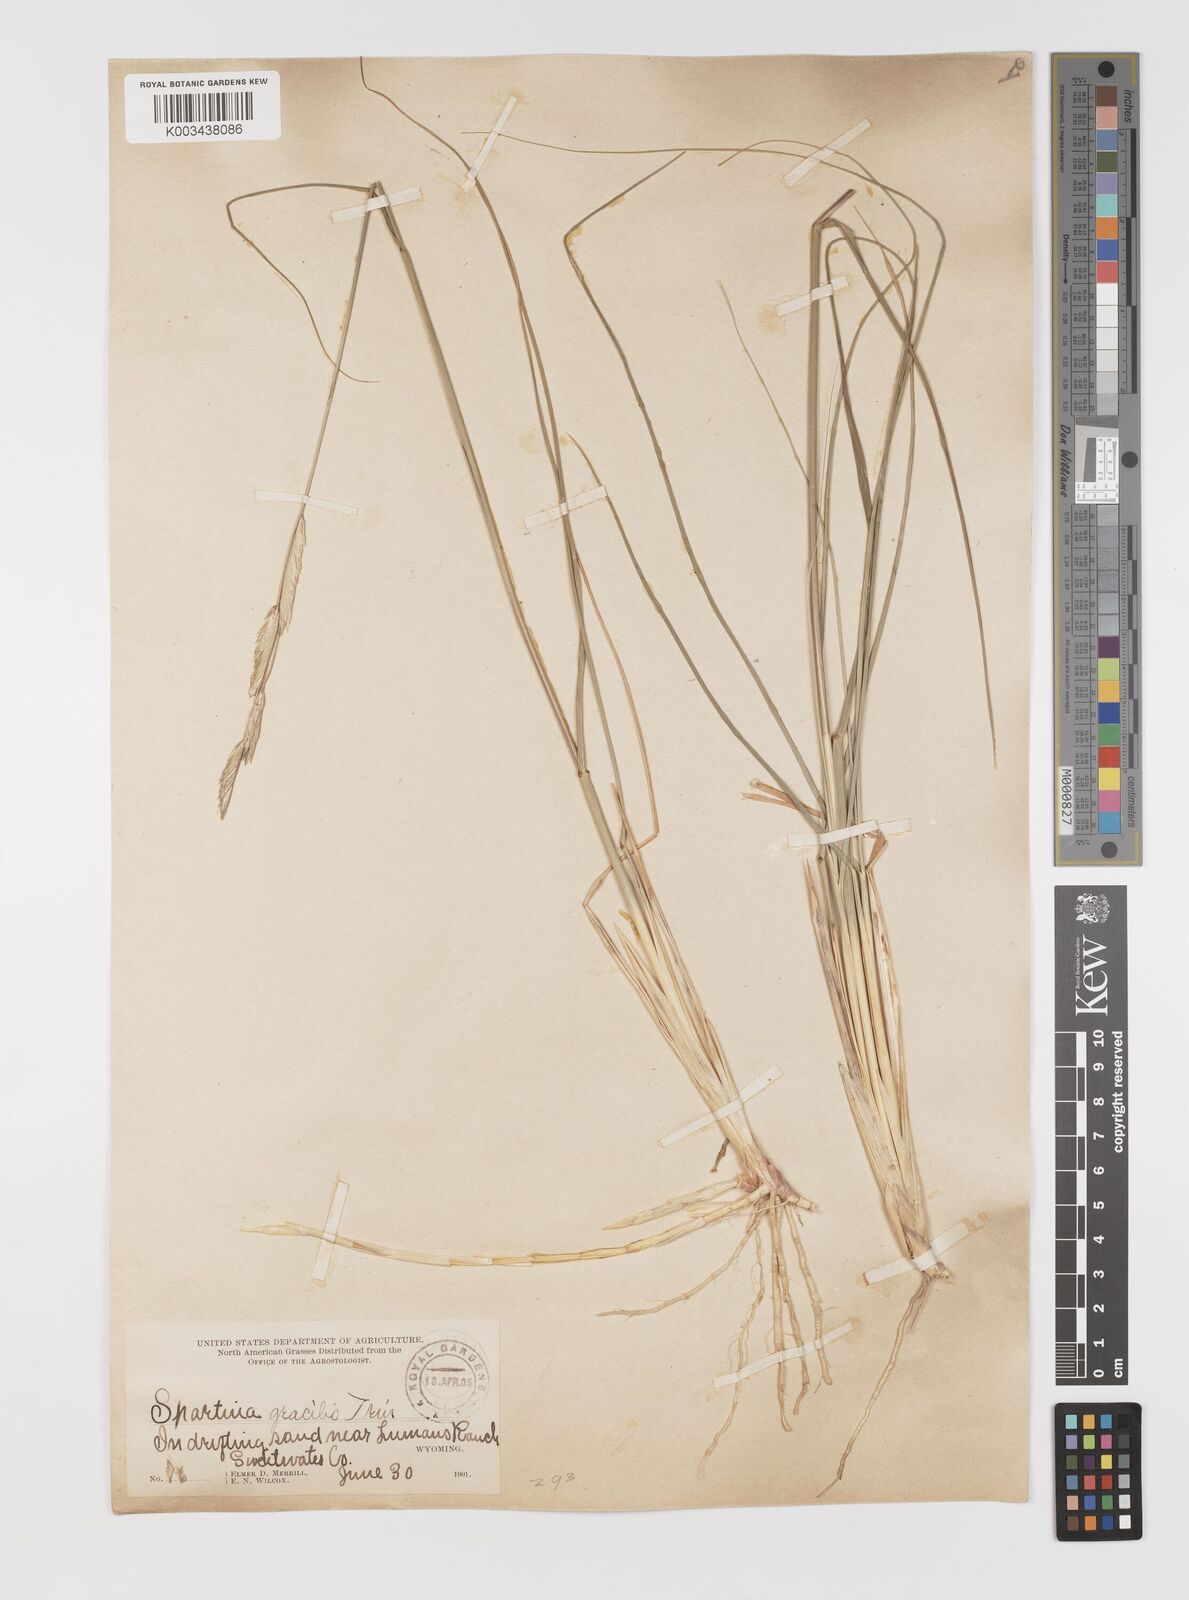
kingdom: Plantae
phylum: Tracheophyta
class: Liliopsida
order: Poales
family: Poaceae
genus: Sporobolus
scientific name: Sporobolus hookerianus
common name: Alkali cordgrass
